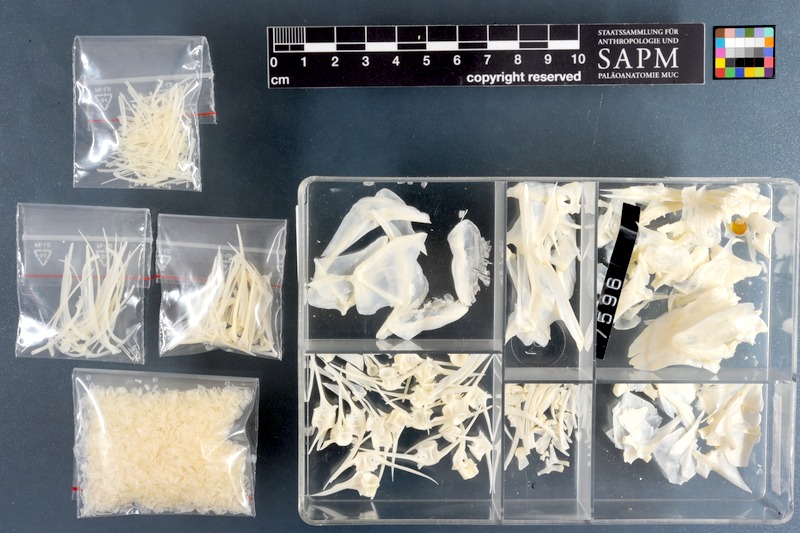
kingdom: Animalia
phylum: Chordata
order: Perciformes
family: Sparidae
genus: Petrus
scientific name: Petrus rupestris
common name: Red steenbras
